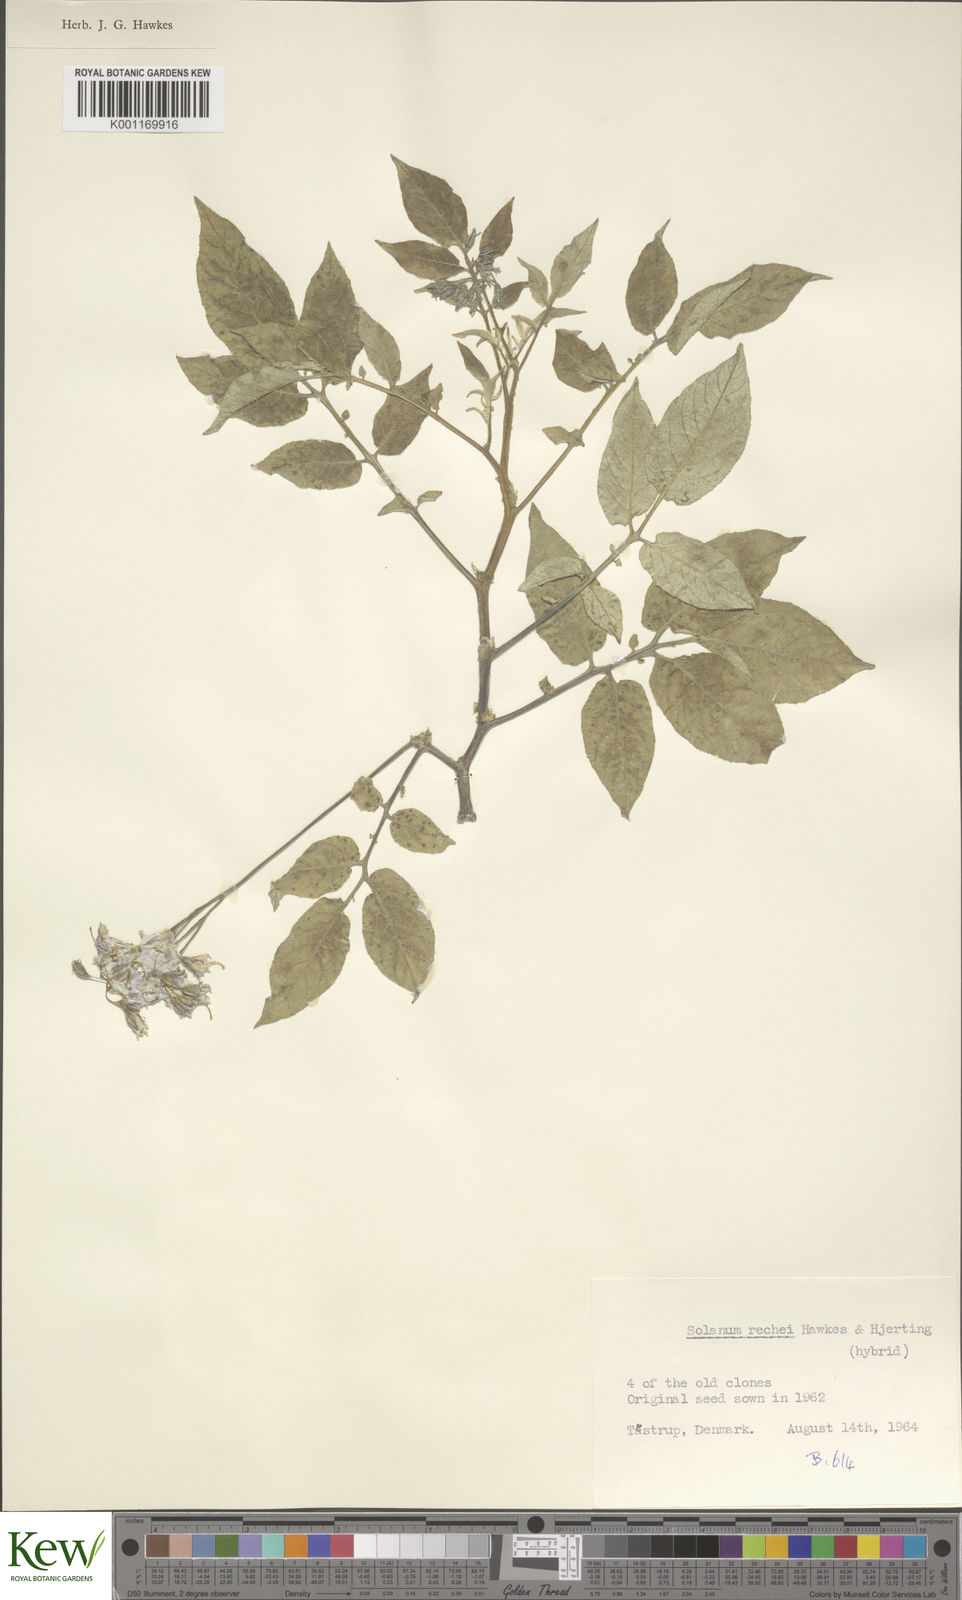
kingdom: Plantae
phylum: Tracheophyta
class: Magnoliopsida
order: Solanales
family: Solanaceae
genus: Solanum
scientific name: Solanum rechei
